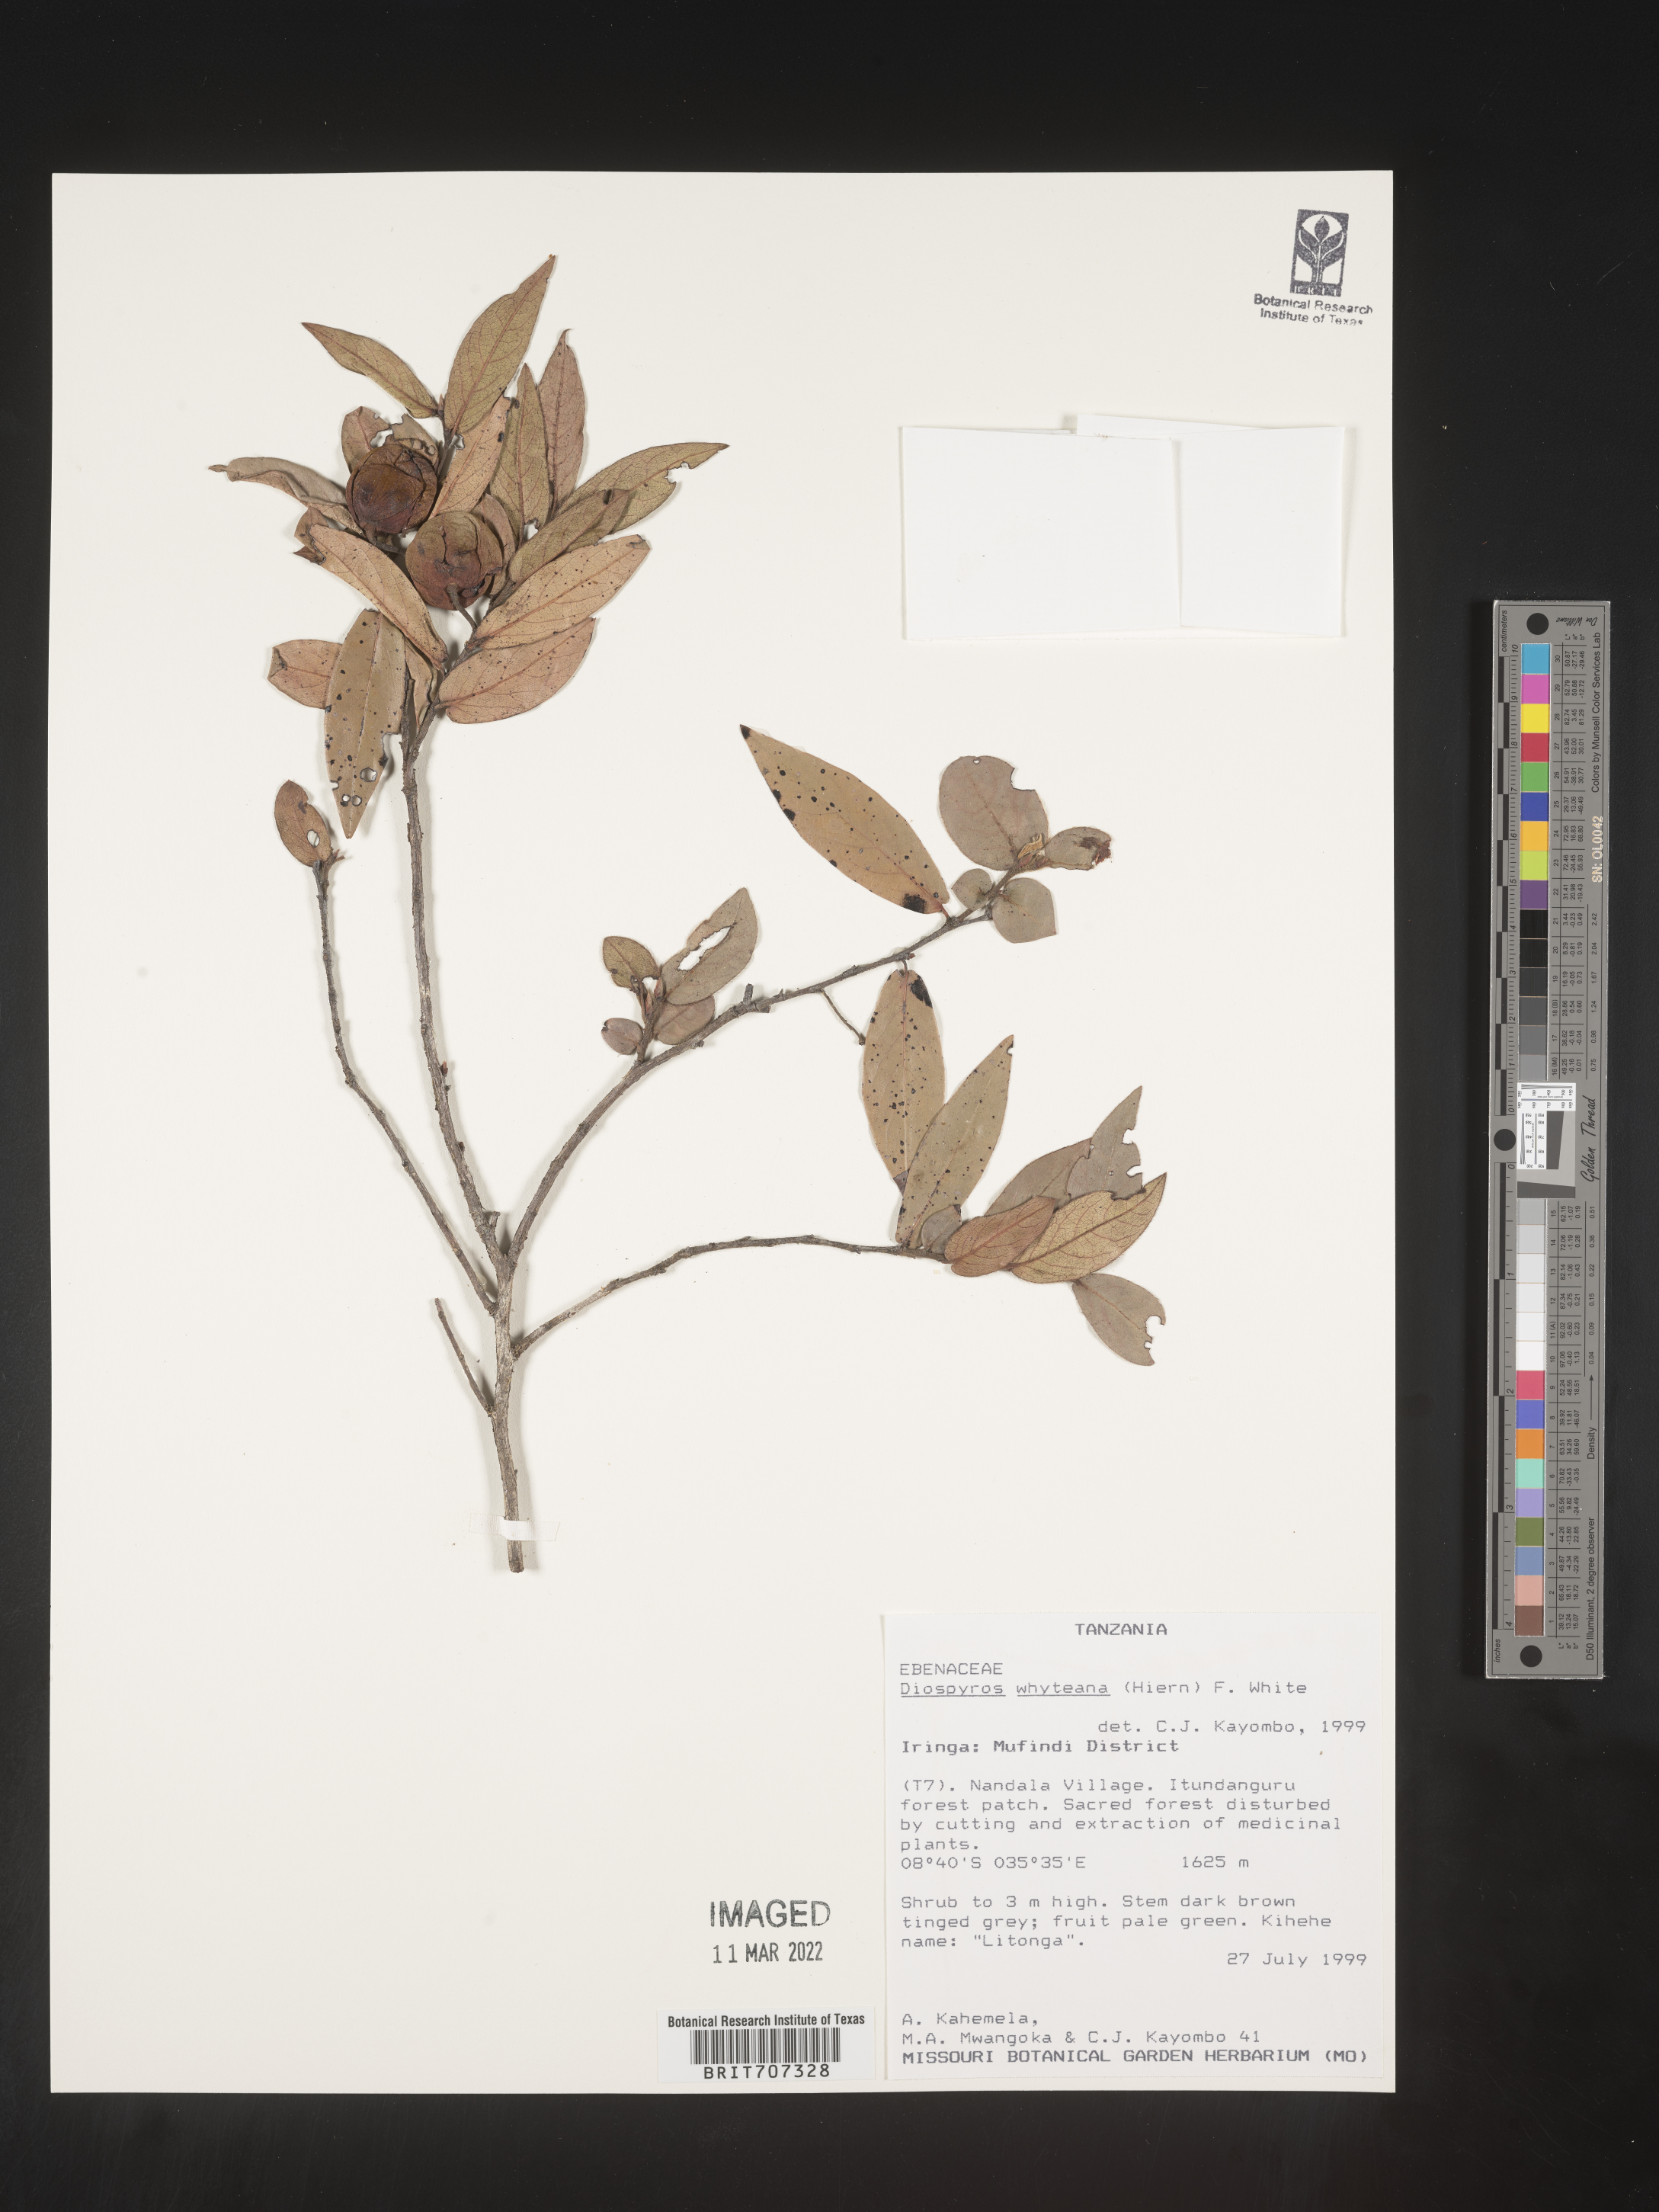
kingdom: Plantae
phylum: Tracheophyta
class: Magnoliopsida
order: Ericales
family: Ebenaceae
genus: Diospyros
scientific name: Diospyros
